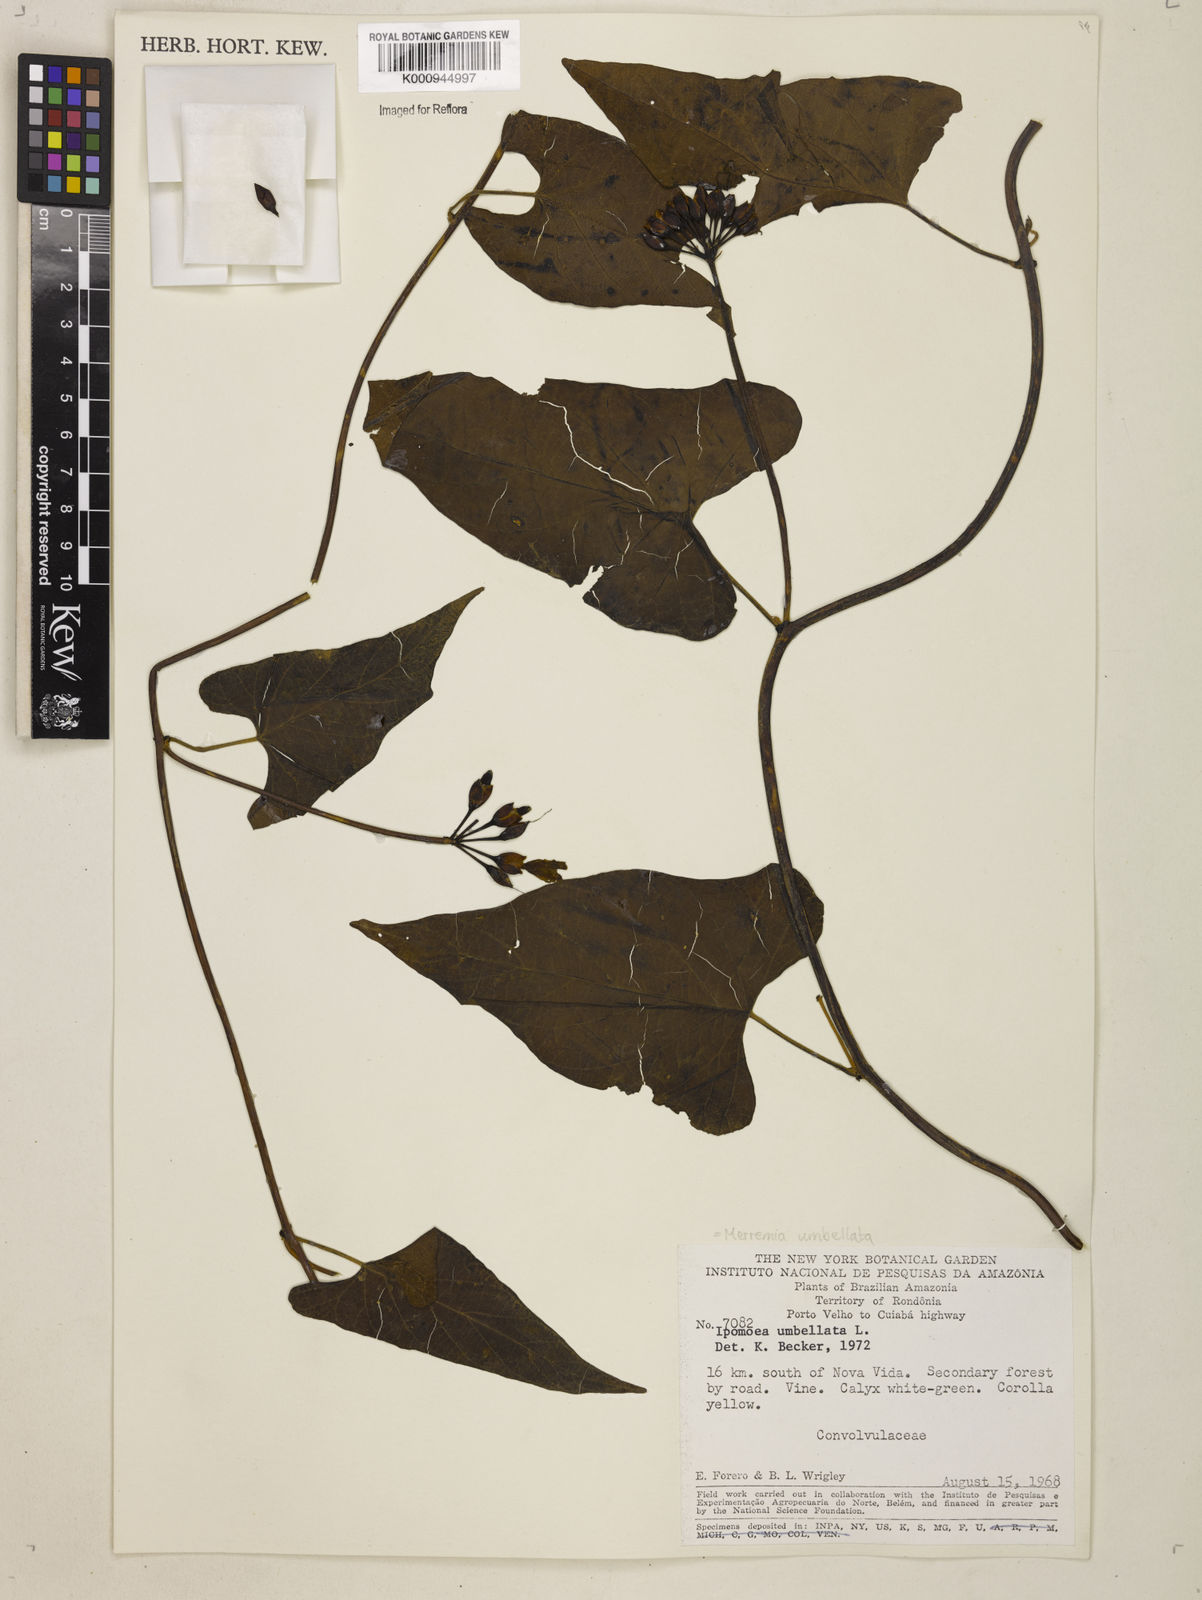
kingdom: Plantae
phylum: Tracheophyta
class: Magnoliopsida
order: Solanales
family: Convolvulaceae
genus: Camonea
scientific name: Camonea umbellata
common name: Hogvine
